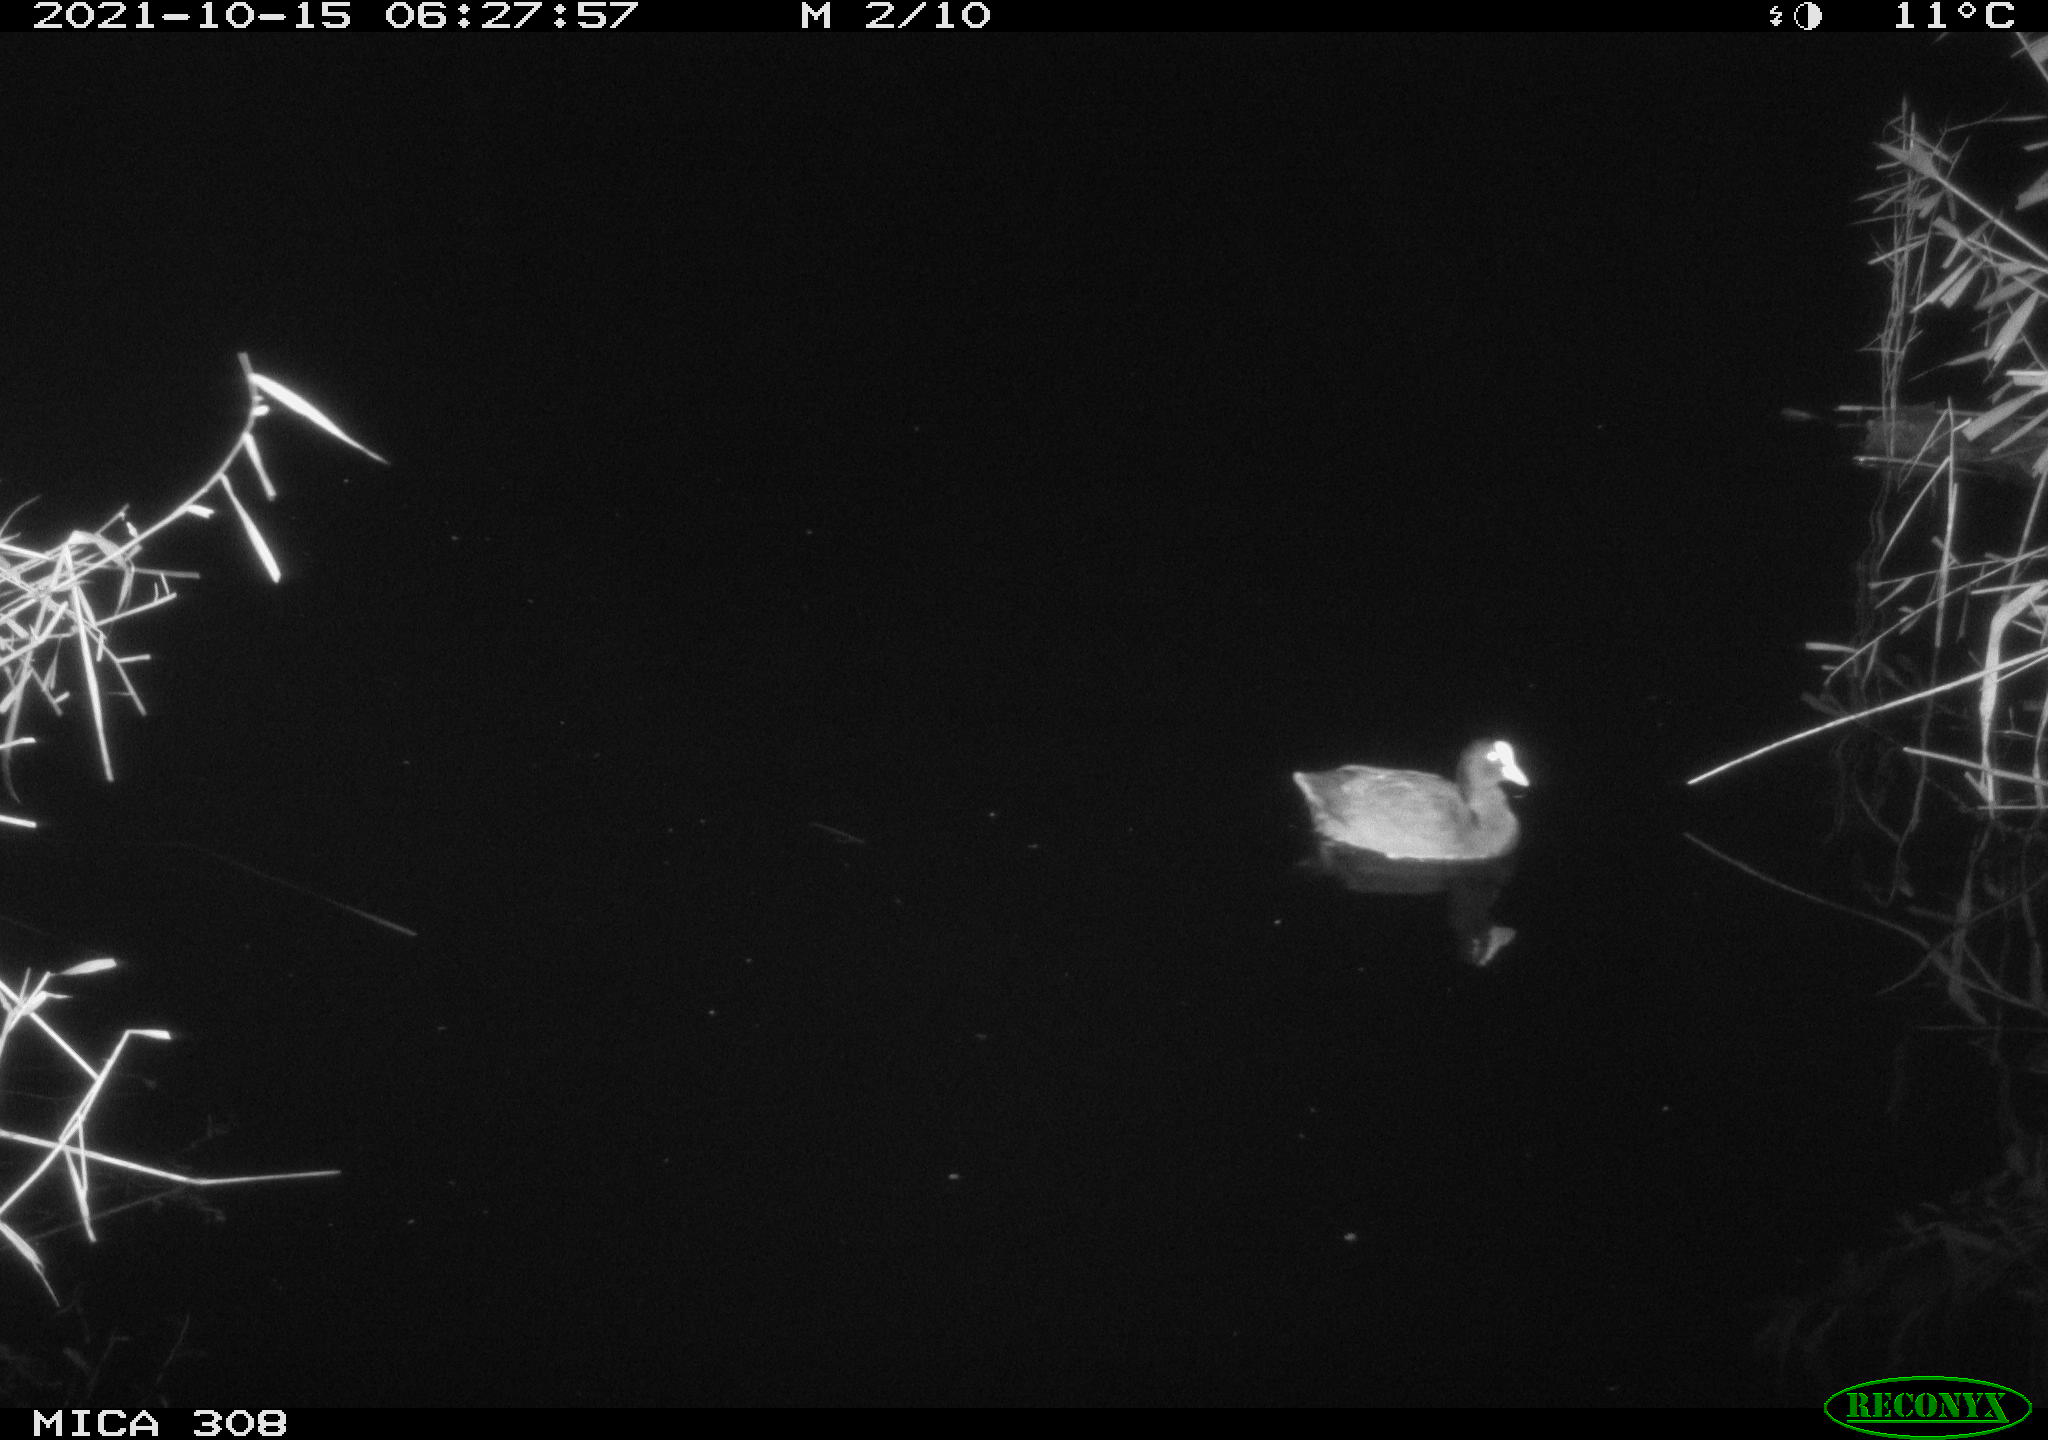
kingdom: Animalia
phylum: Chordata
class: Aves
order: Gruiformes
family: Rallidae
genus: Gallinula
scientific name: Gallinula chloropus
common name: Common moorhen
